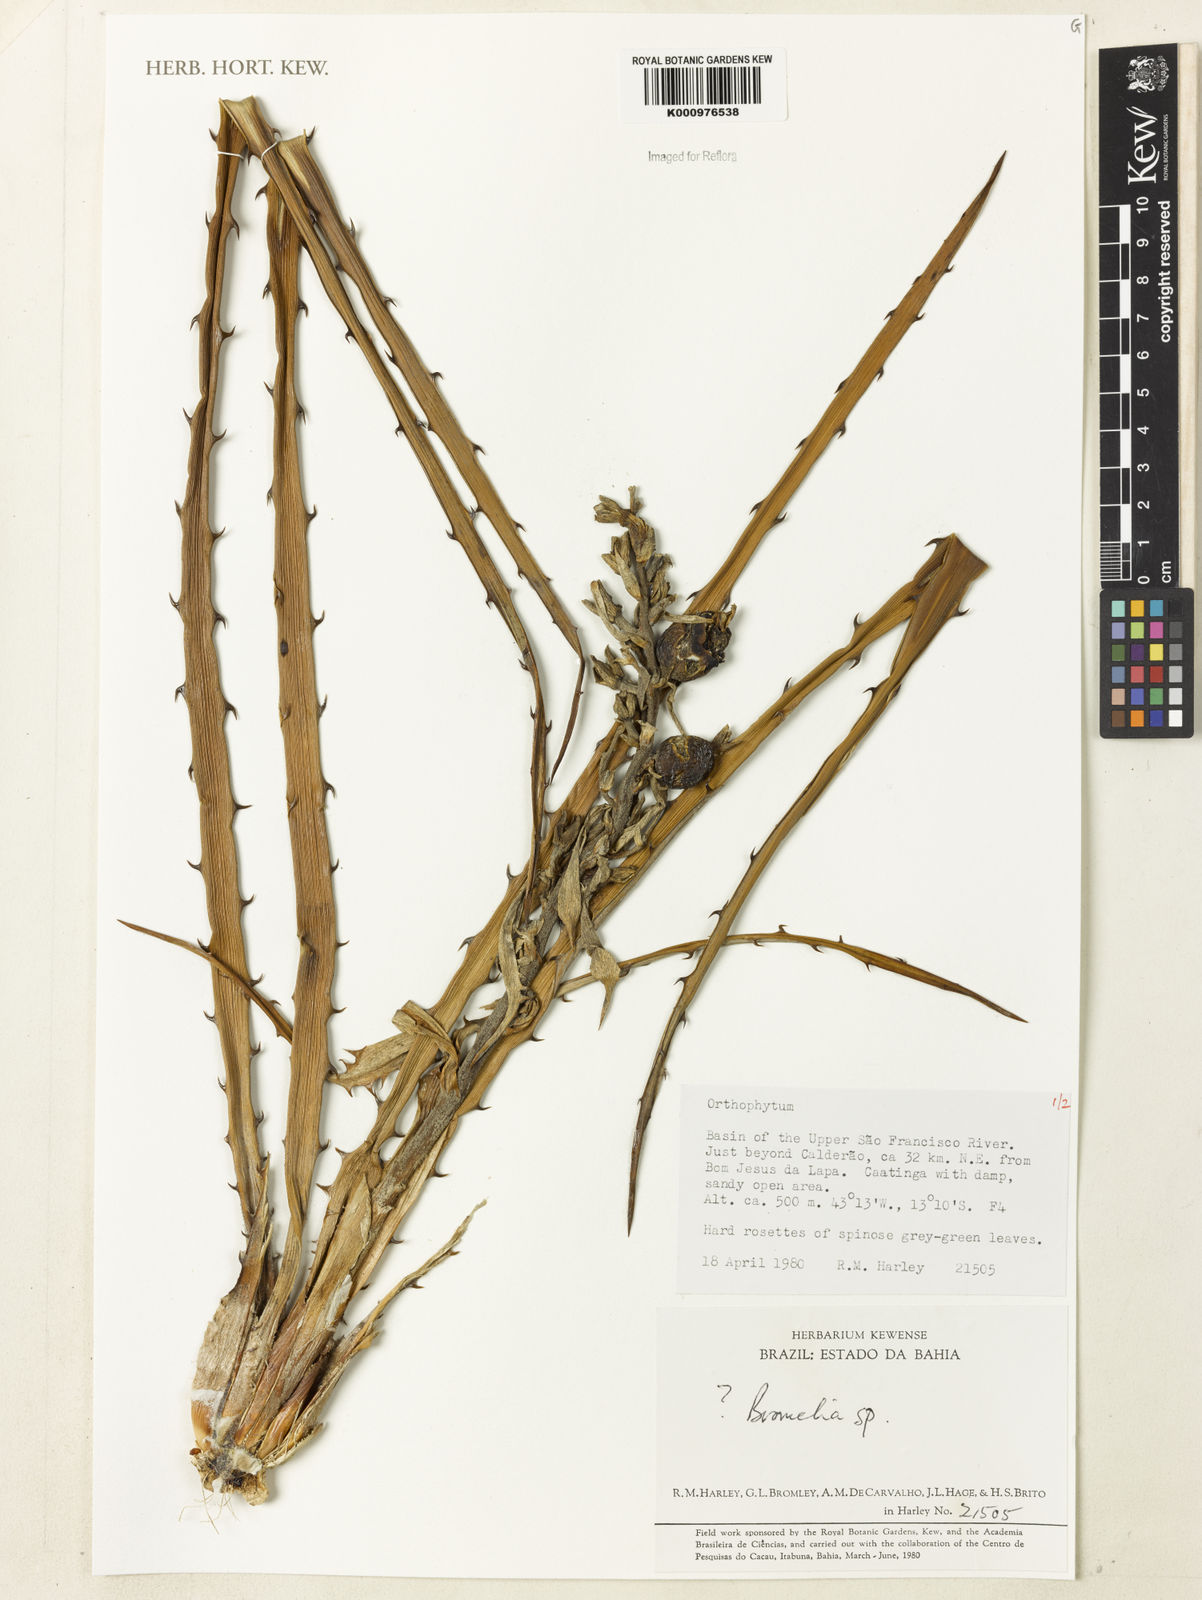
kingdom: Plantae
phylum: Tracheophyta
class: Liliopsida
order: Poales
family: Bromeliaceae
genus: Bromelia
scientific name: Bromelia
